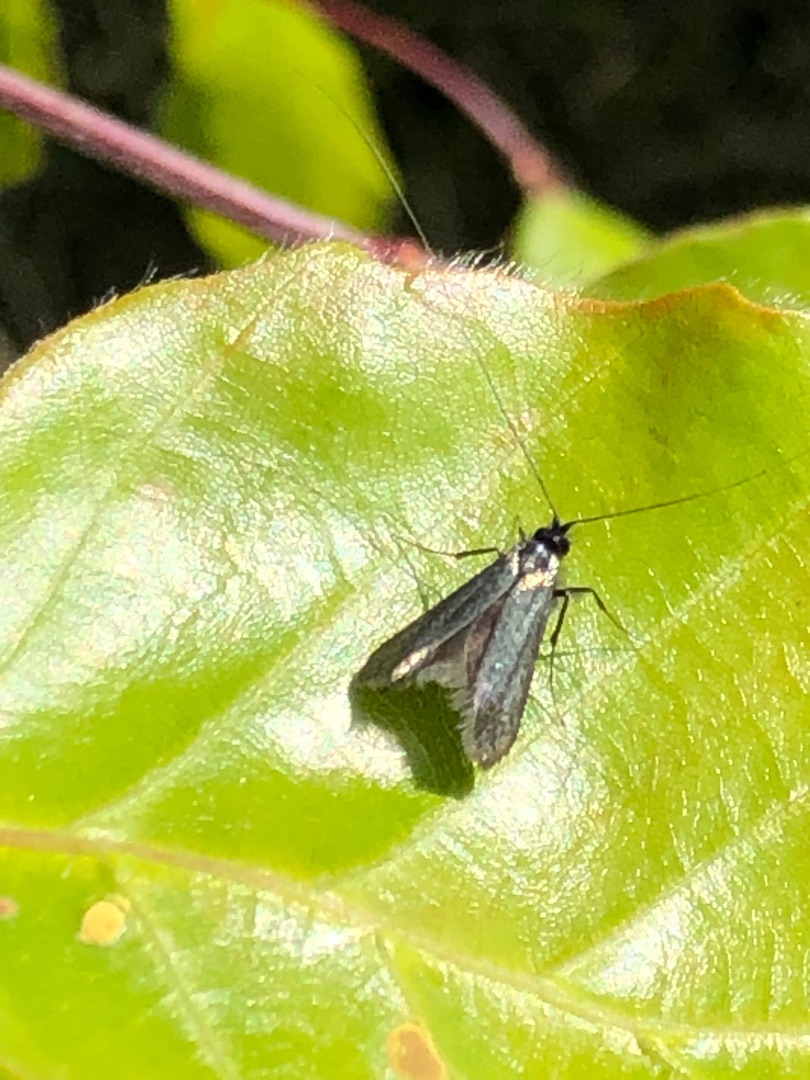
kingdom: Animalia
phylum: Arthropoda
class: Insecta
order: Lepidoptera
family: Adelidae
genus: Adela
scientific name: Adela viridella
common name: Egelanghornsmøl
